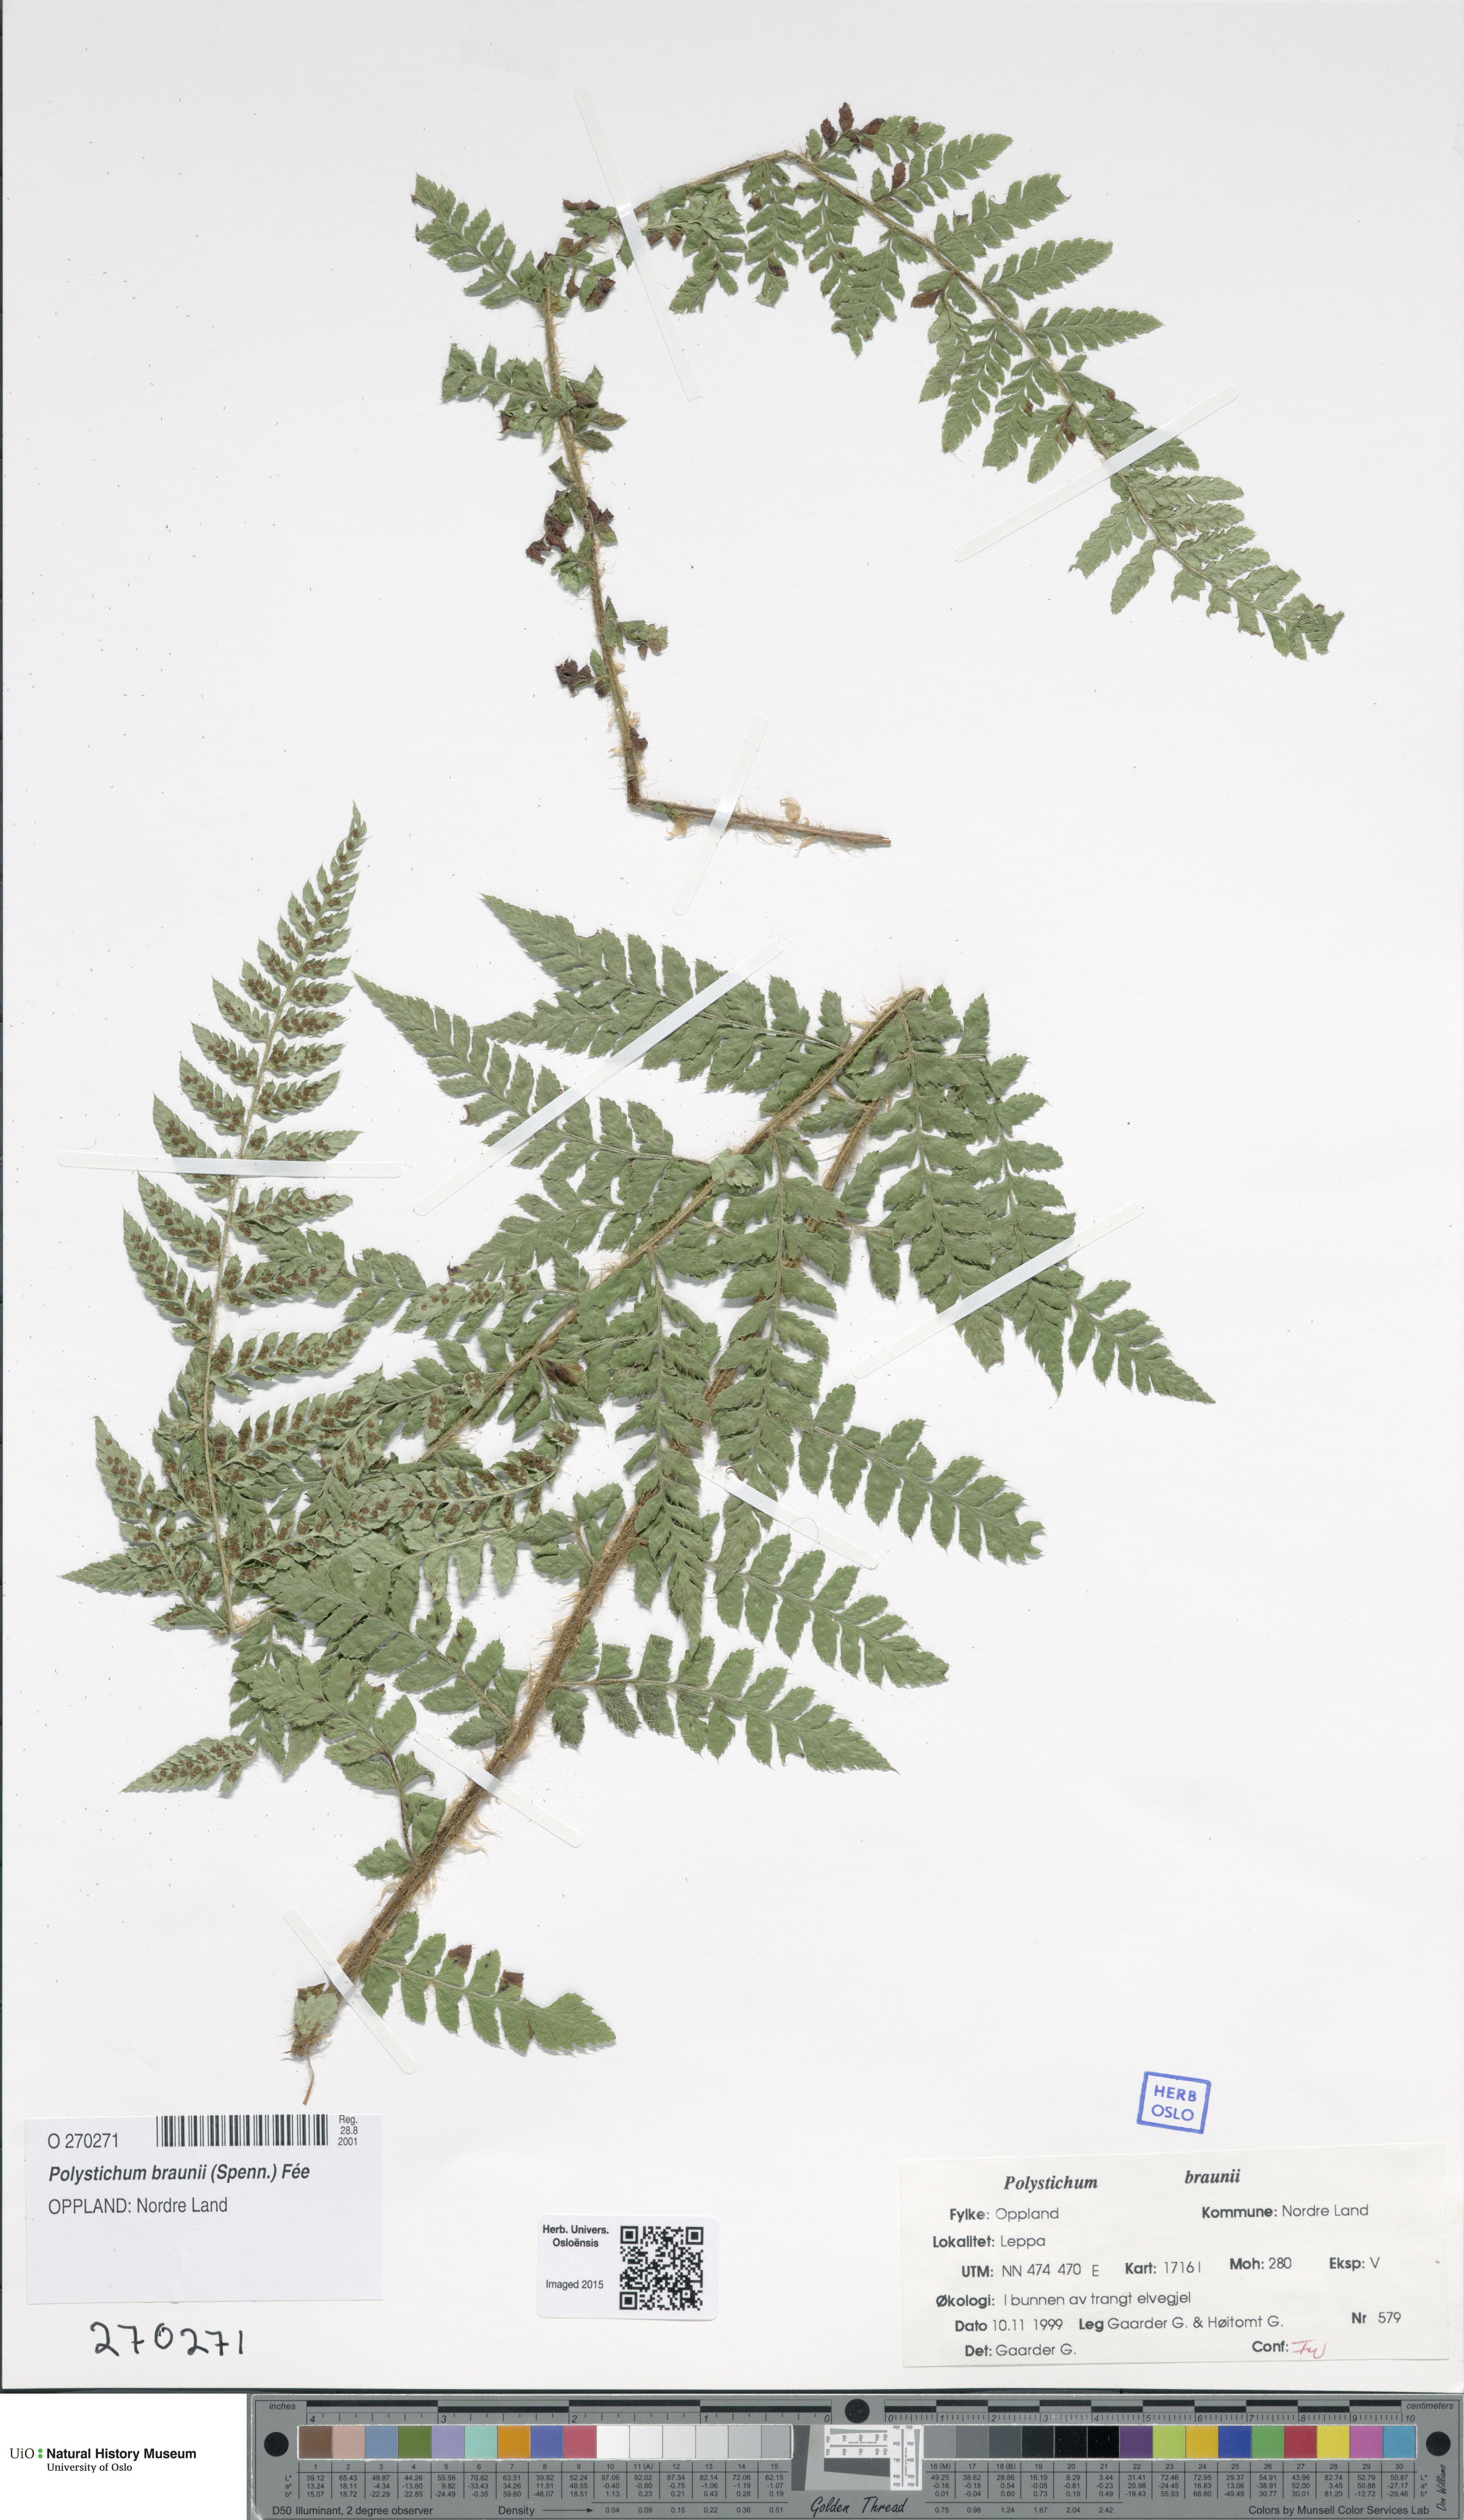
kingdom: Plantae
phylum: Tracheophyta
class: Polypodiopsida
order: Polypodiales
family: Dryopteridaceae
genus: Polystichum
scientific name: Polystichum braunii
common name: Braun's holly fern
